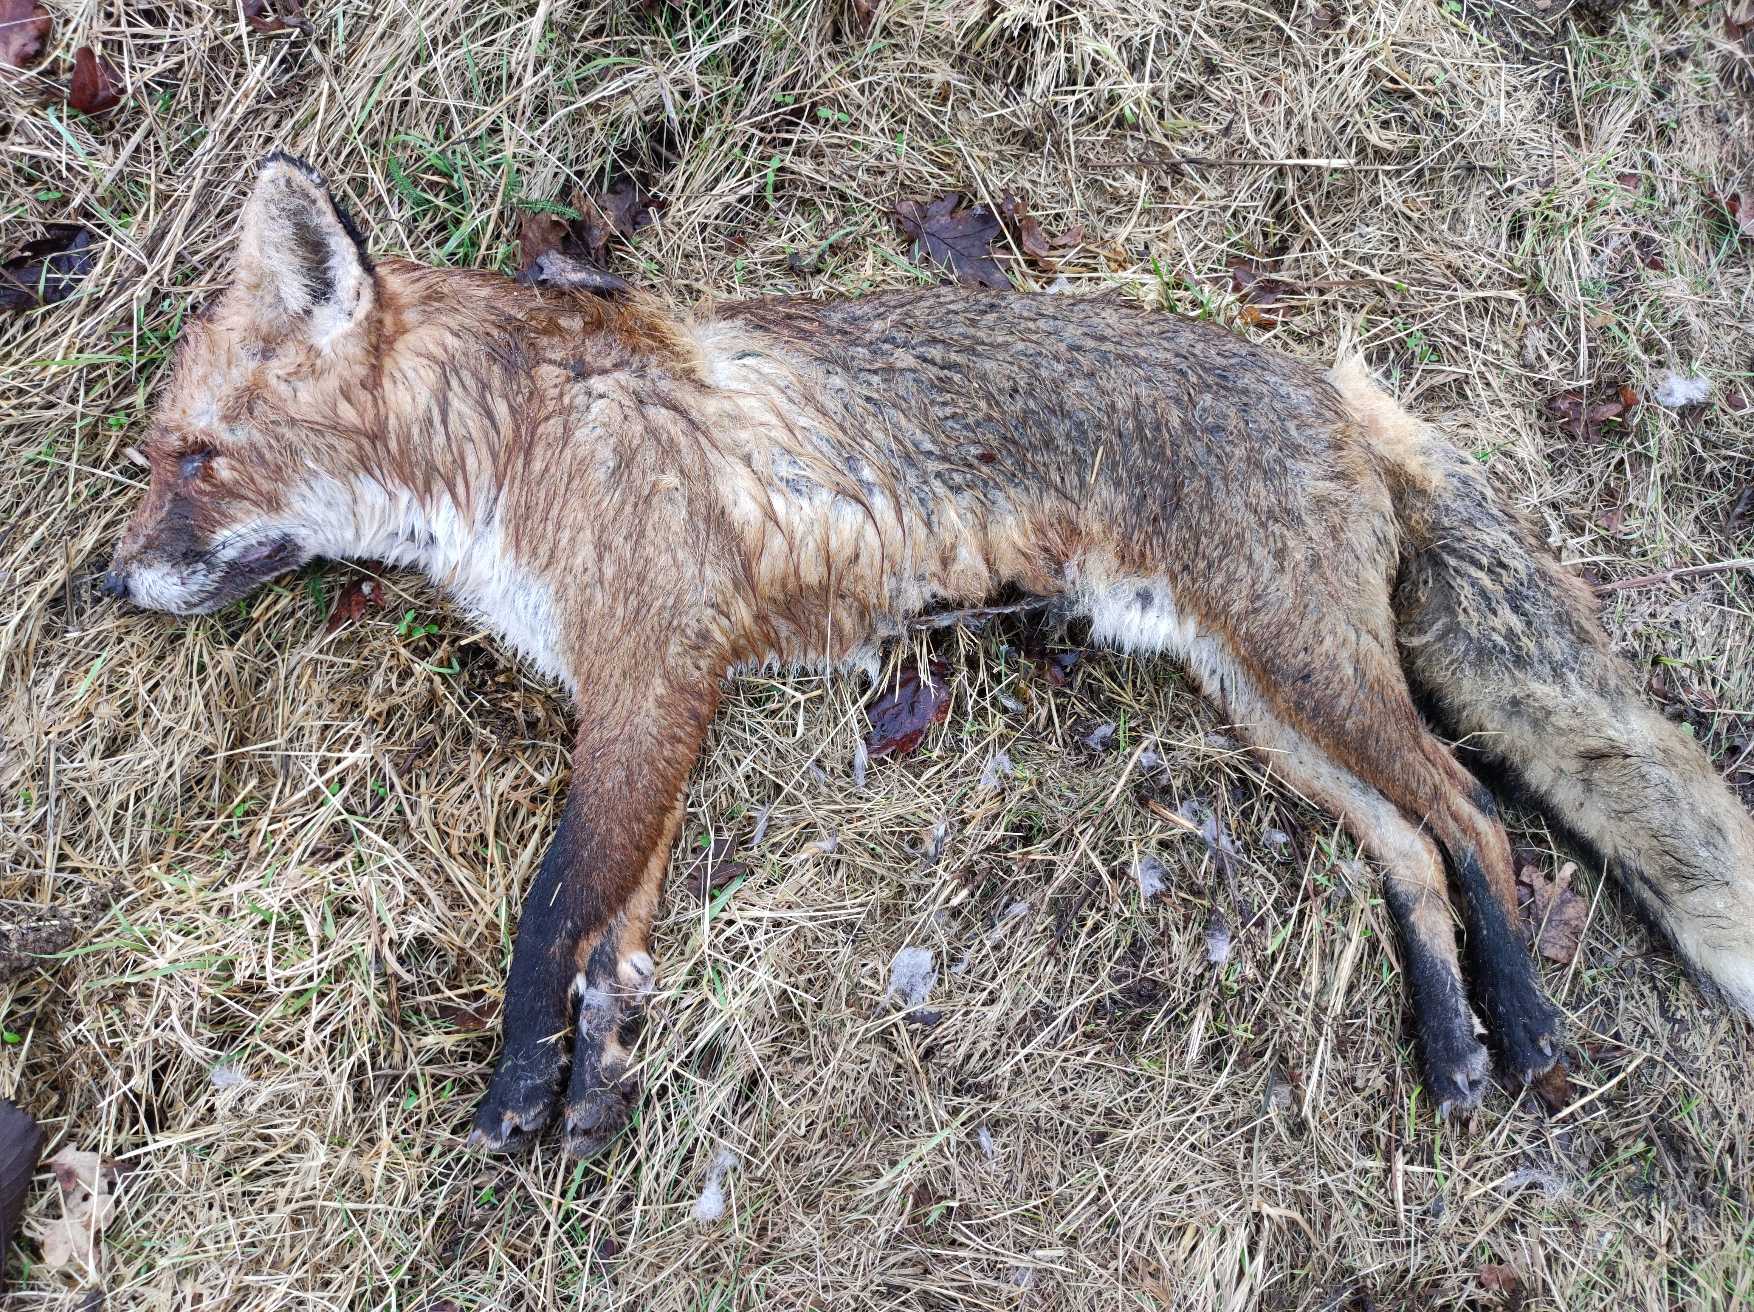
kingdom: Animalia
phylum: Chordata
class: Mammalia
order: Carnivora
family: Canidae
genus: Vulpes
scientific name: Vulpes vulpes
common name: Ræv
